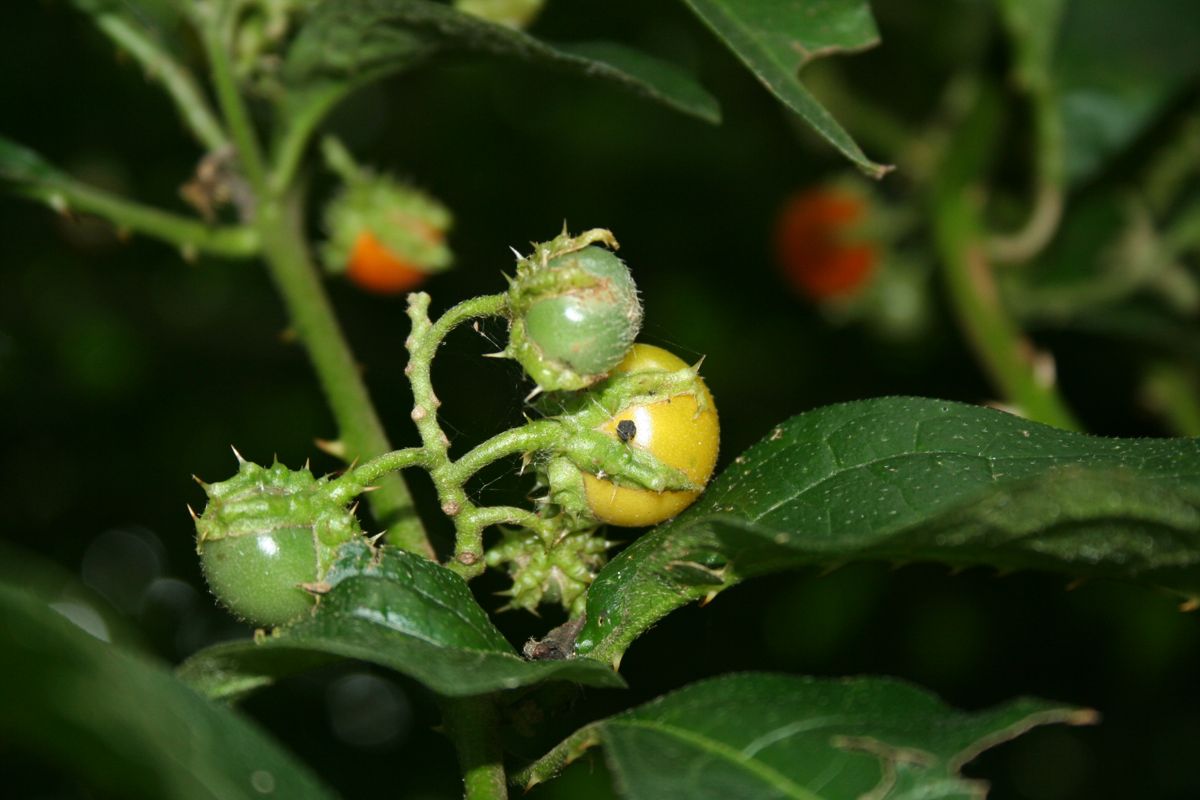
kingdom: Plantae
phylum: Tracheophyta
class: Magnoliopsida
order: Solanales
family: Solanaceae
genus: Solanum
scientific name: Solanum volubile
